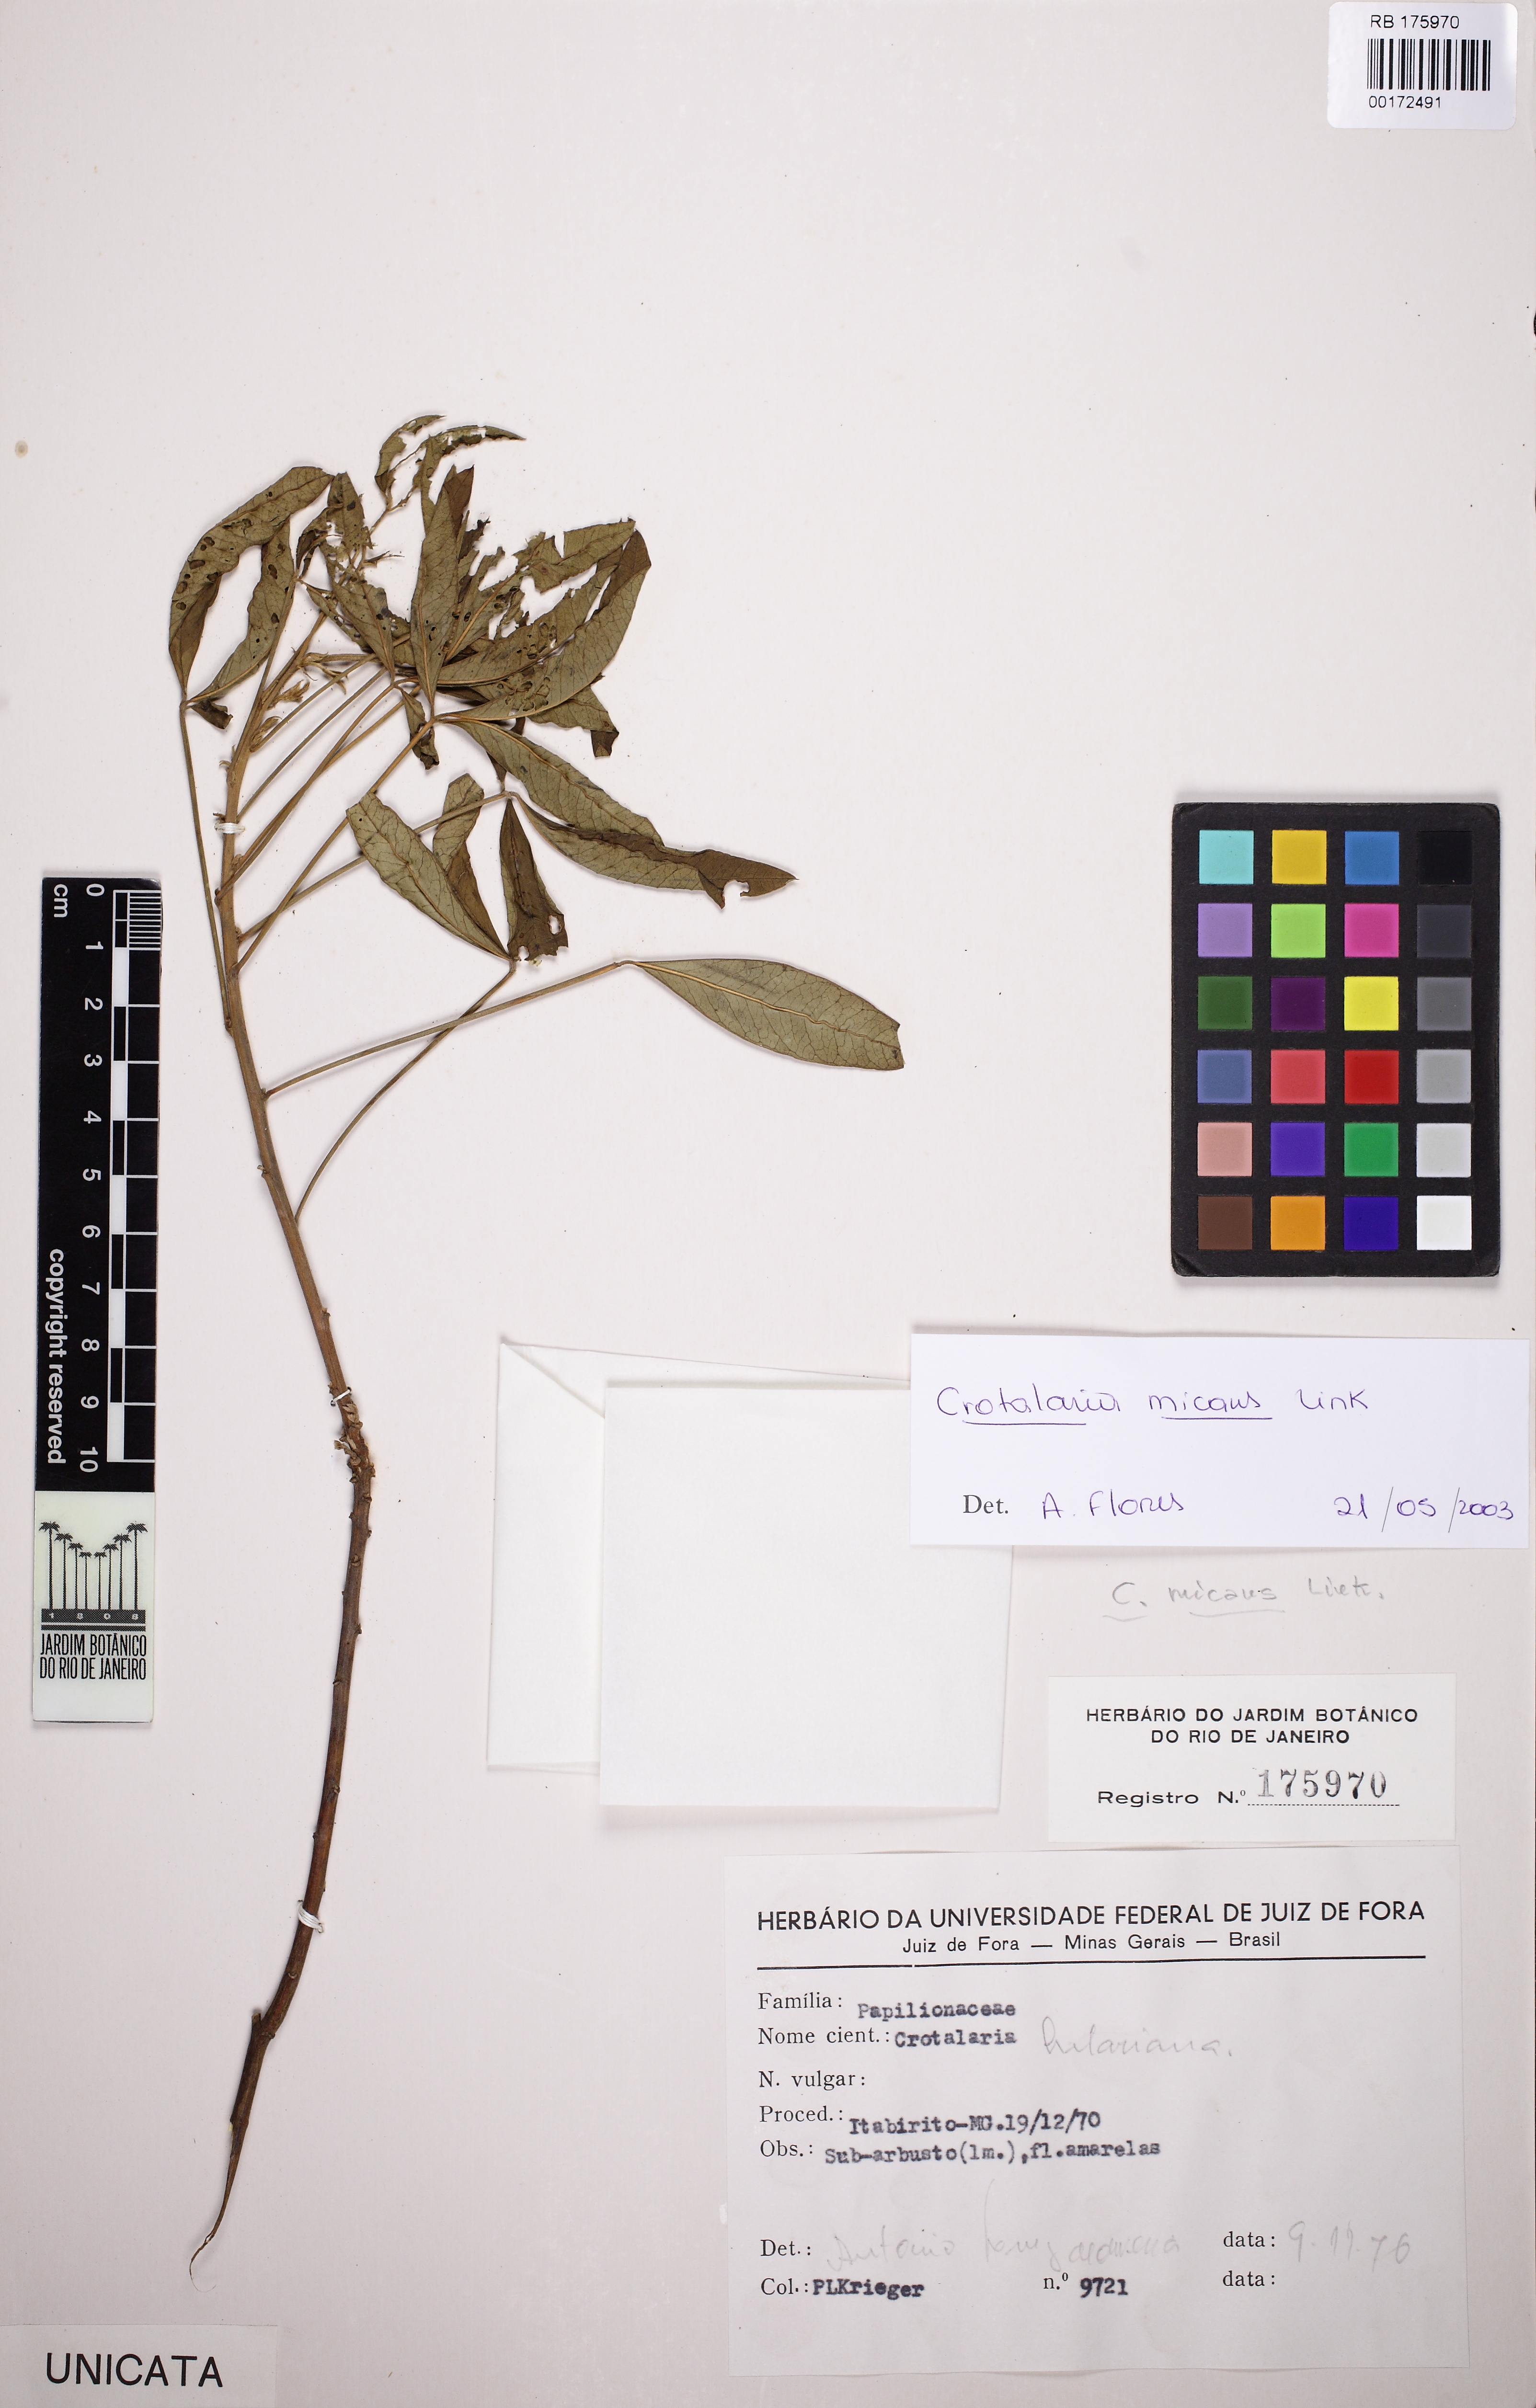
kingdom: Plantae
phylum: Tracheophyta
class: Magnoliopsida
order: Fabales
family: Fabaceae
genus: Crotalaria
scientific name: Crotalaria hilariana
